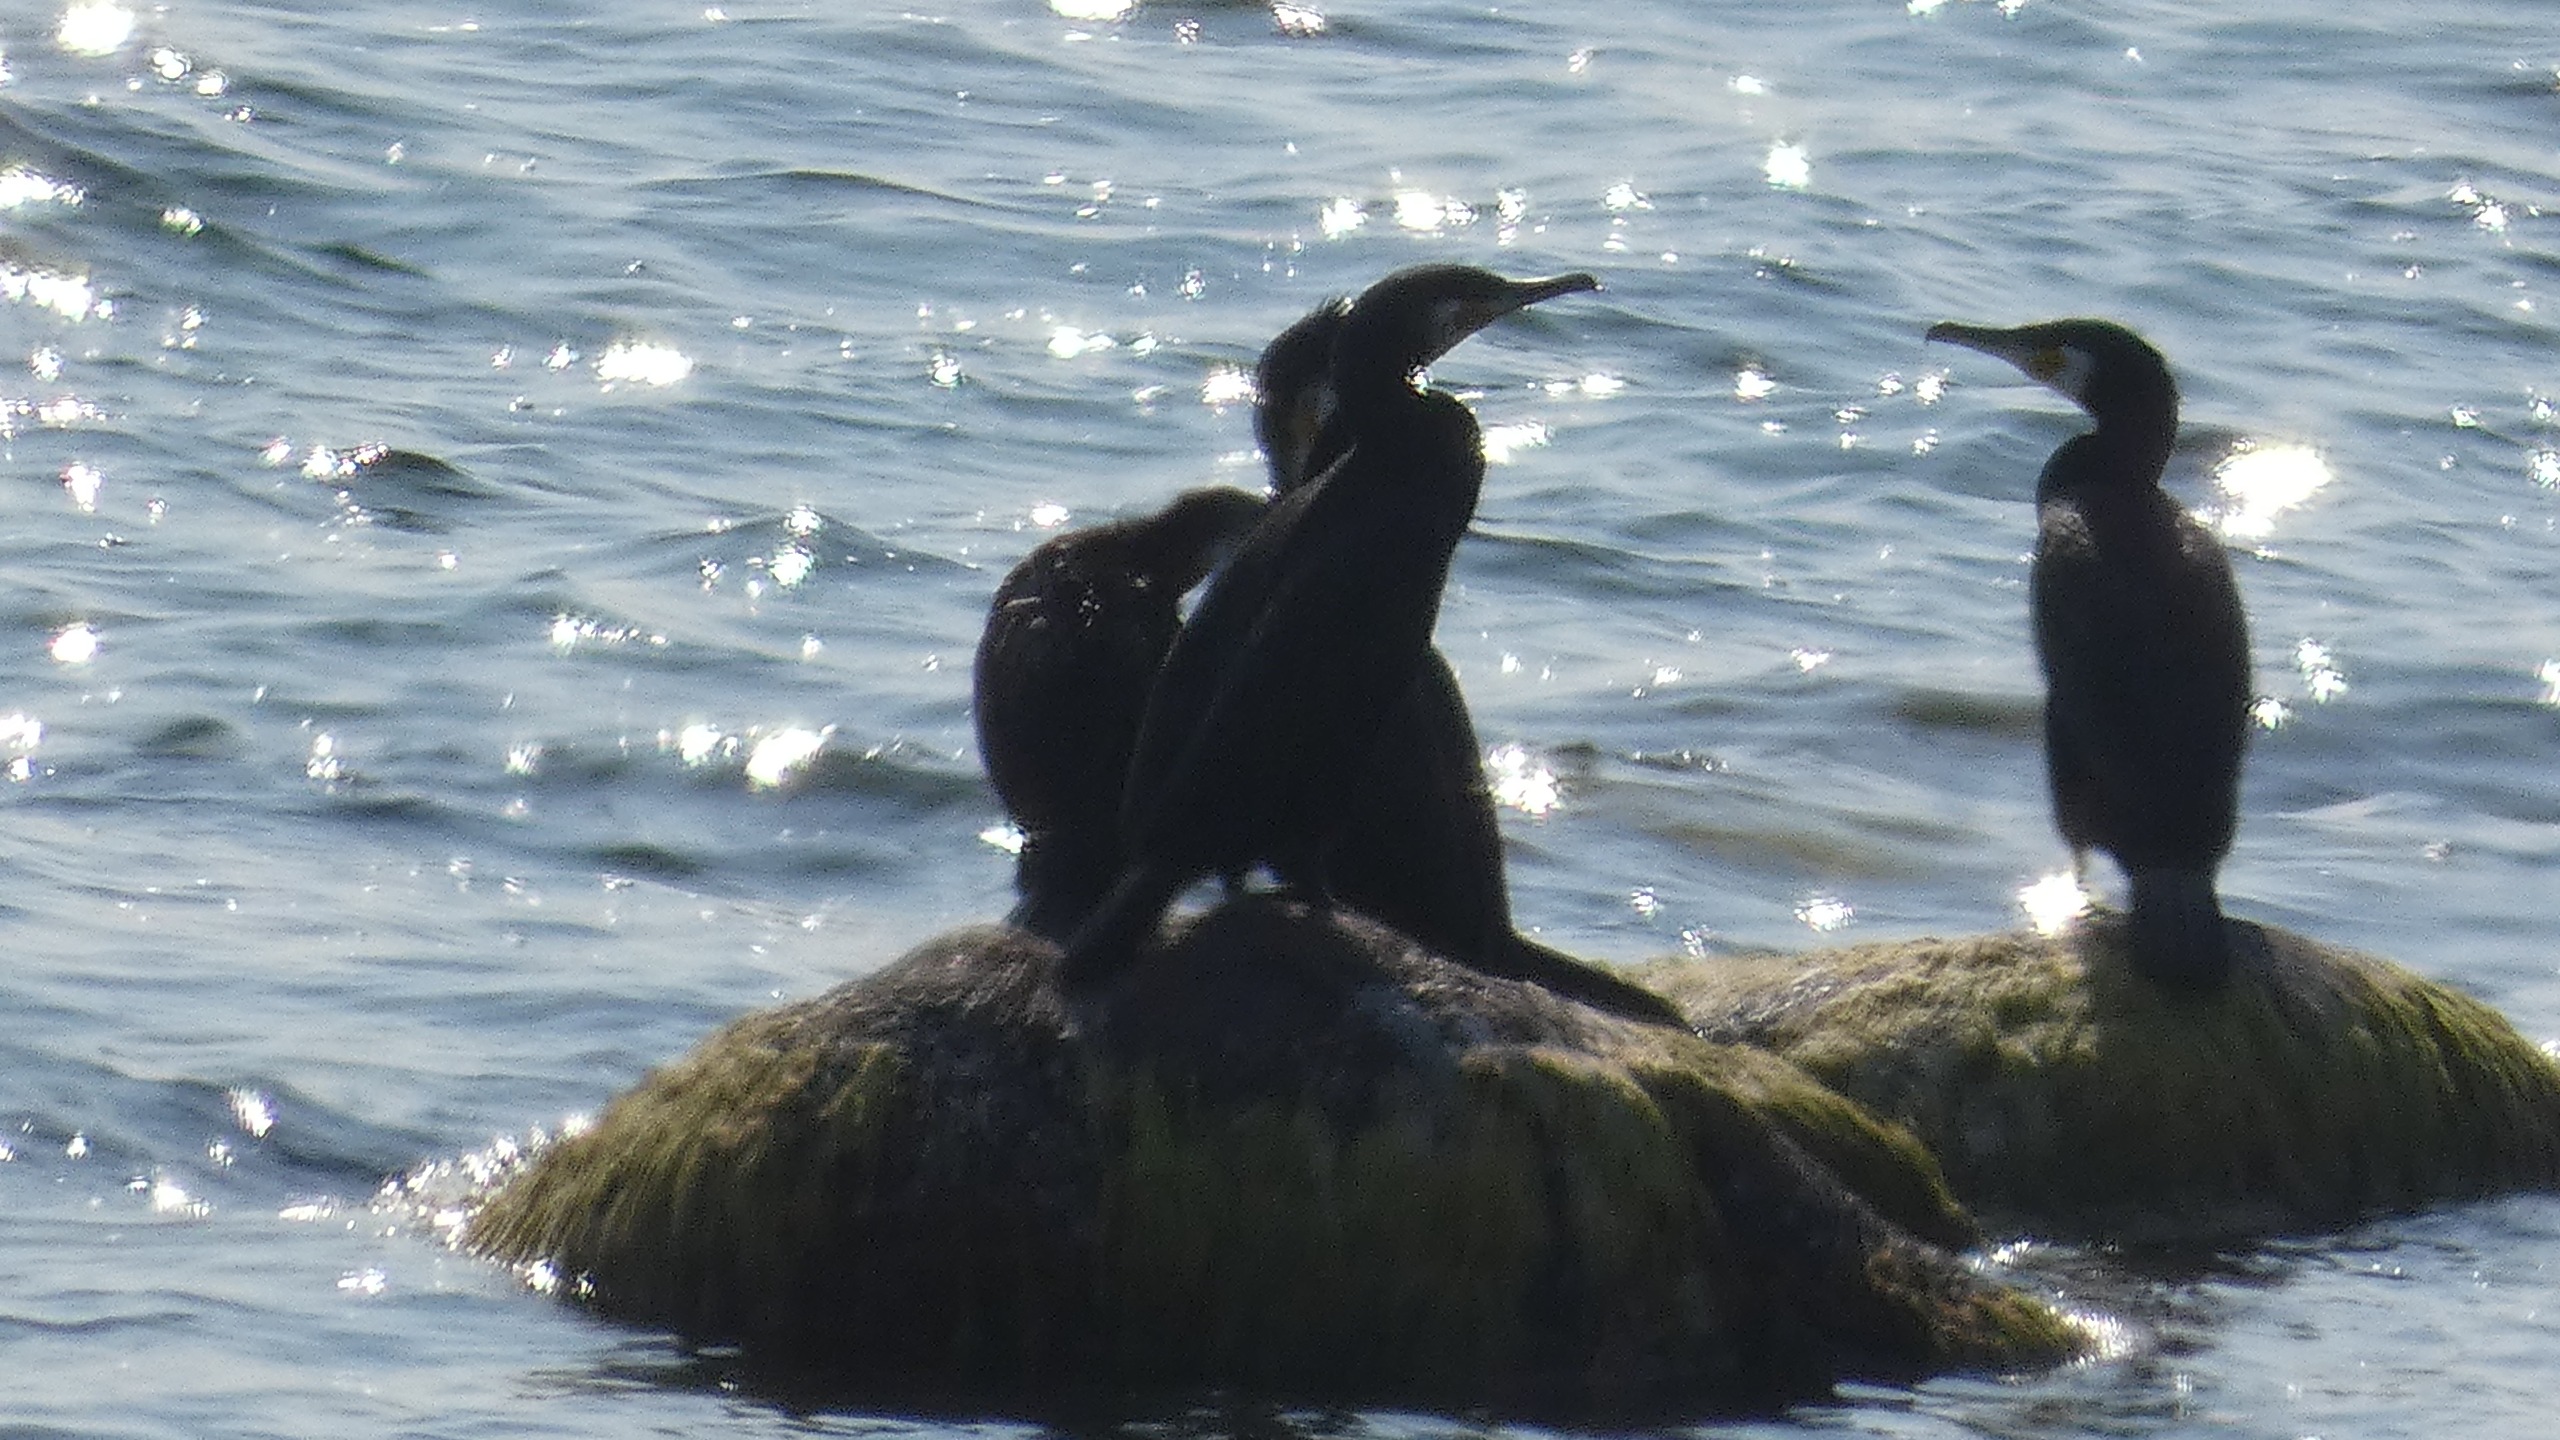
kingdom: Animalia
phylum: Chordata
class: Aves
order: Suliformes
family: Phalacrocoracidae
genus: Phalacrocorax
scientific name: Phalacrocorax carbo
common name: Skarv
